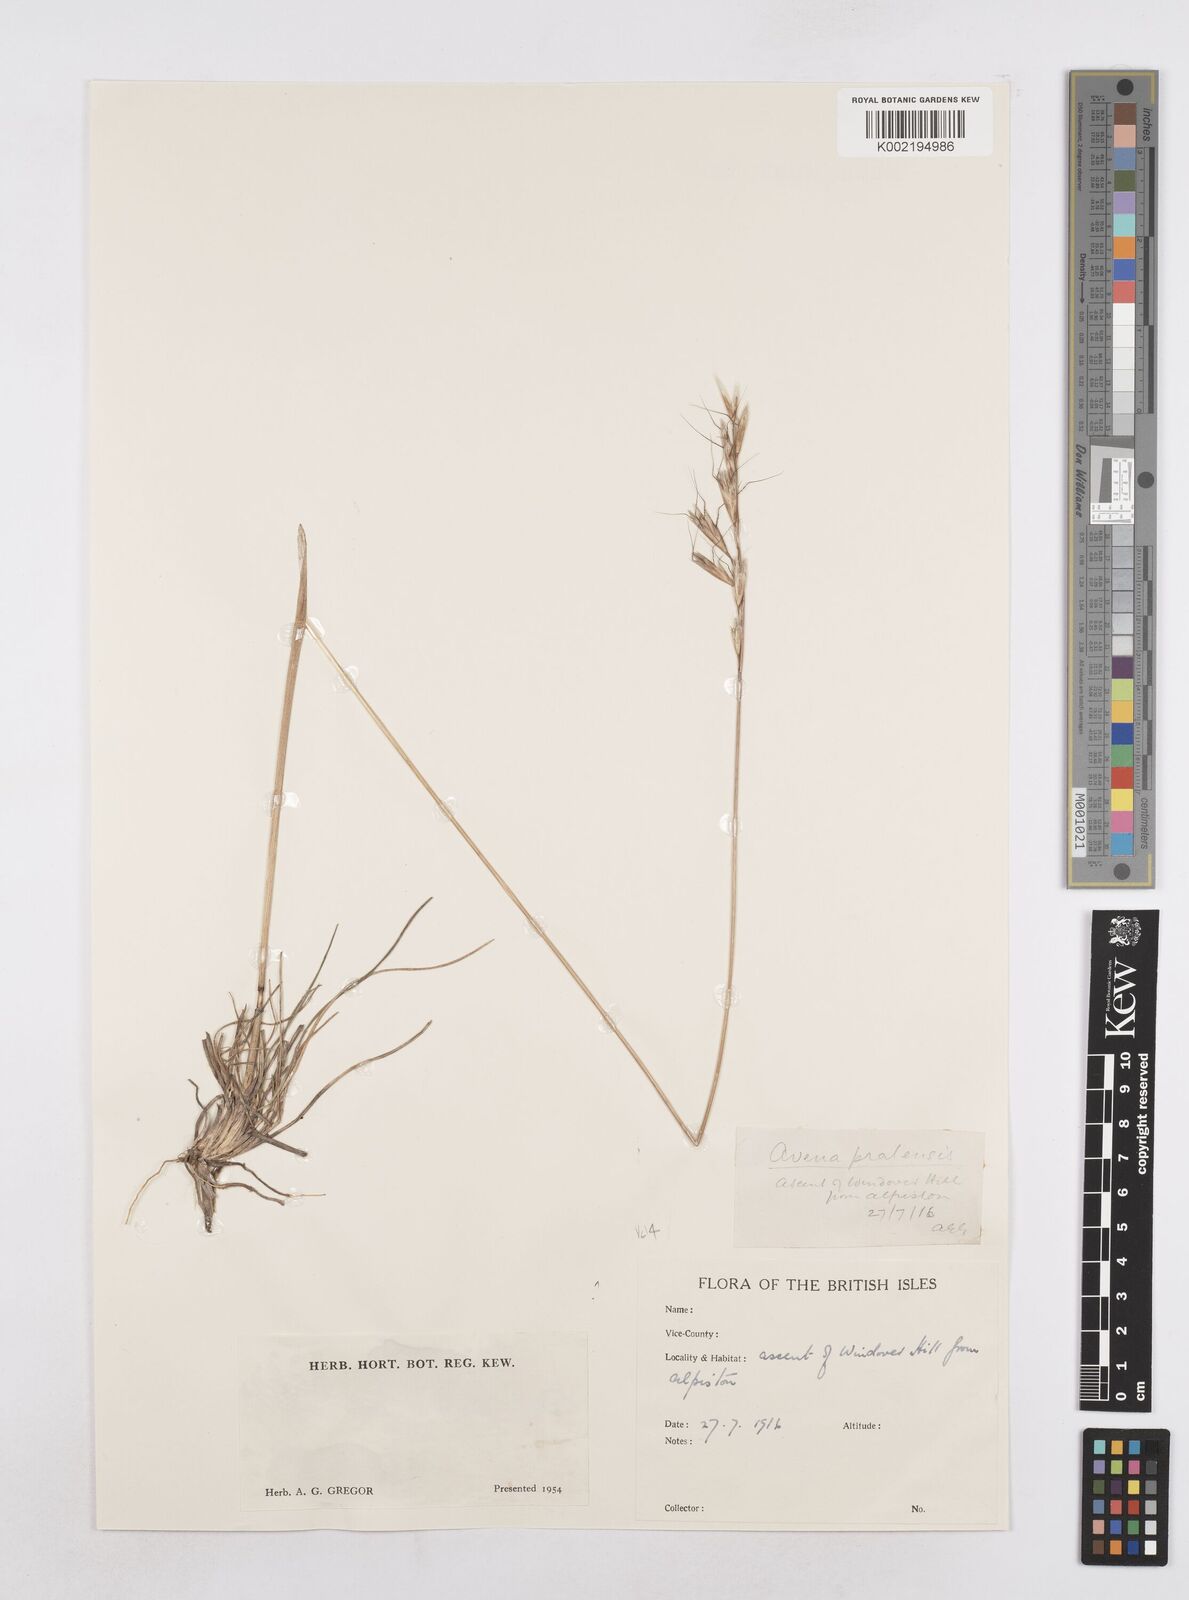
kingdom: Plantae
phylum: Tracheophyta
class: Liliopsida
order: Poales
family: Poaceae
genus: Helictochloa
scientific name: Helictochloa pratensis
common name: Meadow oat grass
